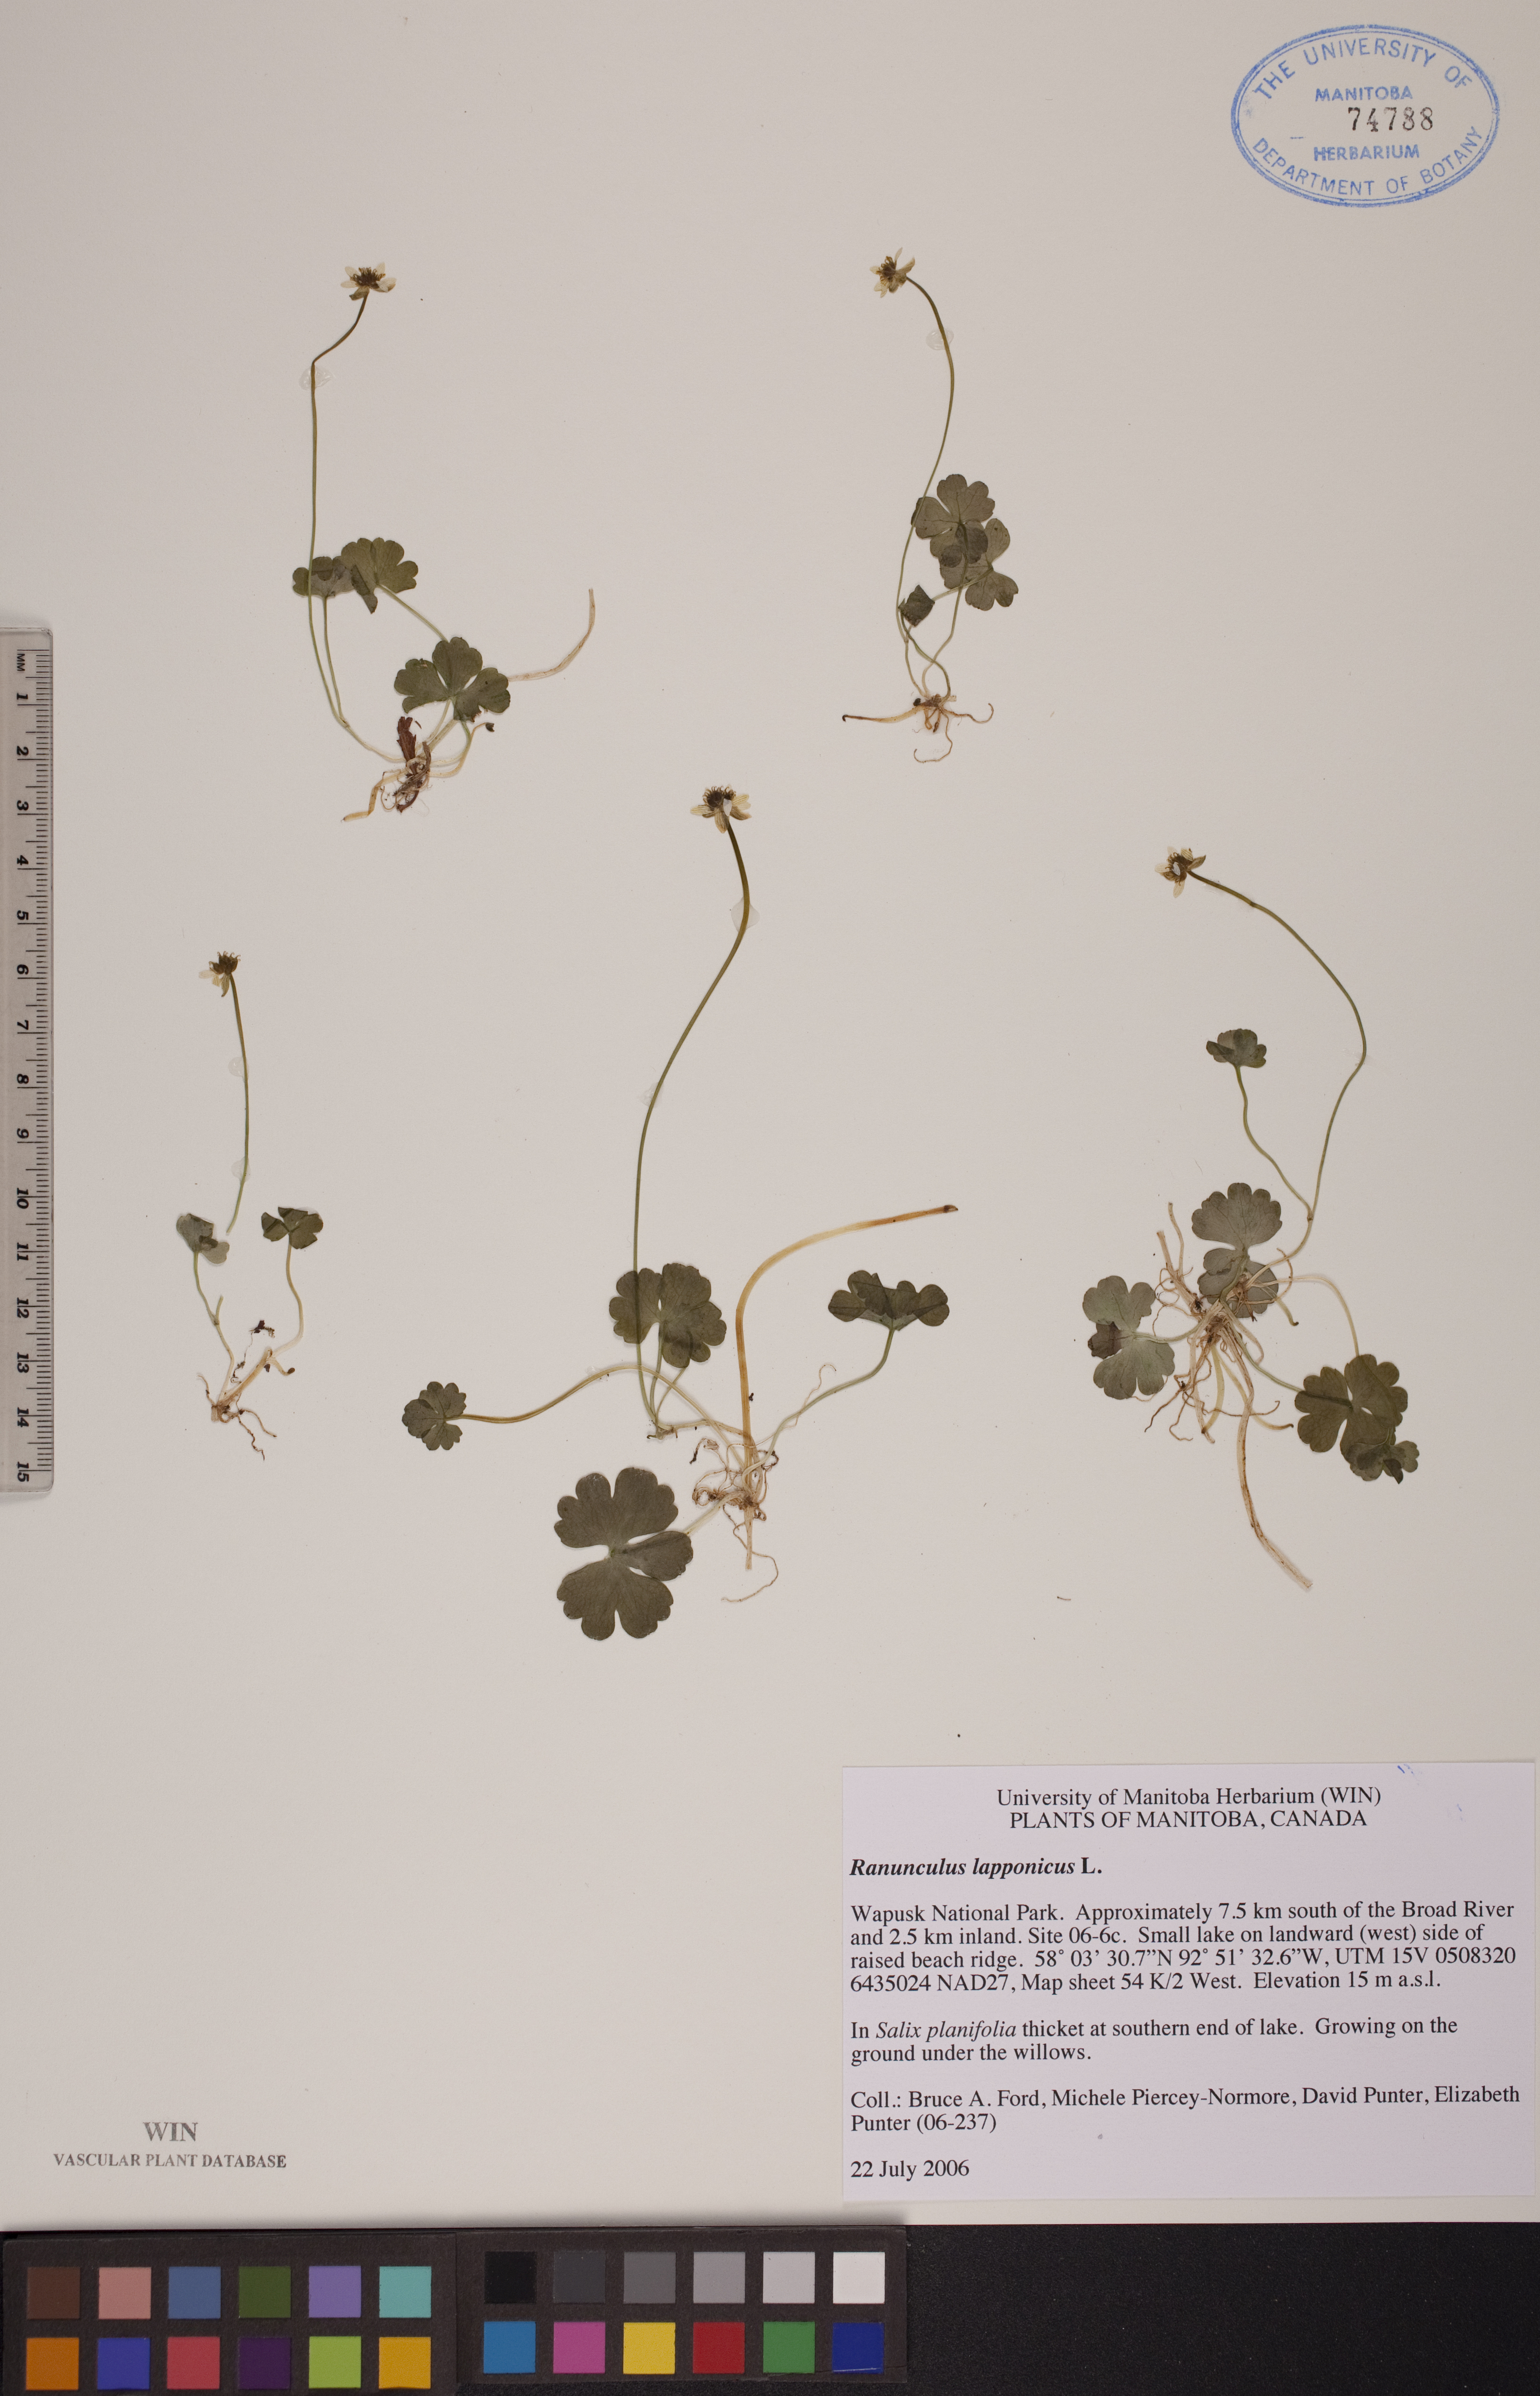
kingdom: Plantae
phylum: Tracheophyta
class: Magnoliopsida
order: Ranunculales
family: Ranunculaceae
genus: Coptidium
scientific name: Coptidium lapponicum
